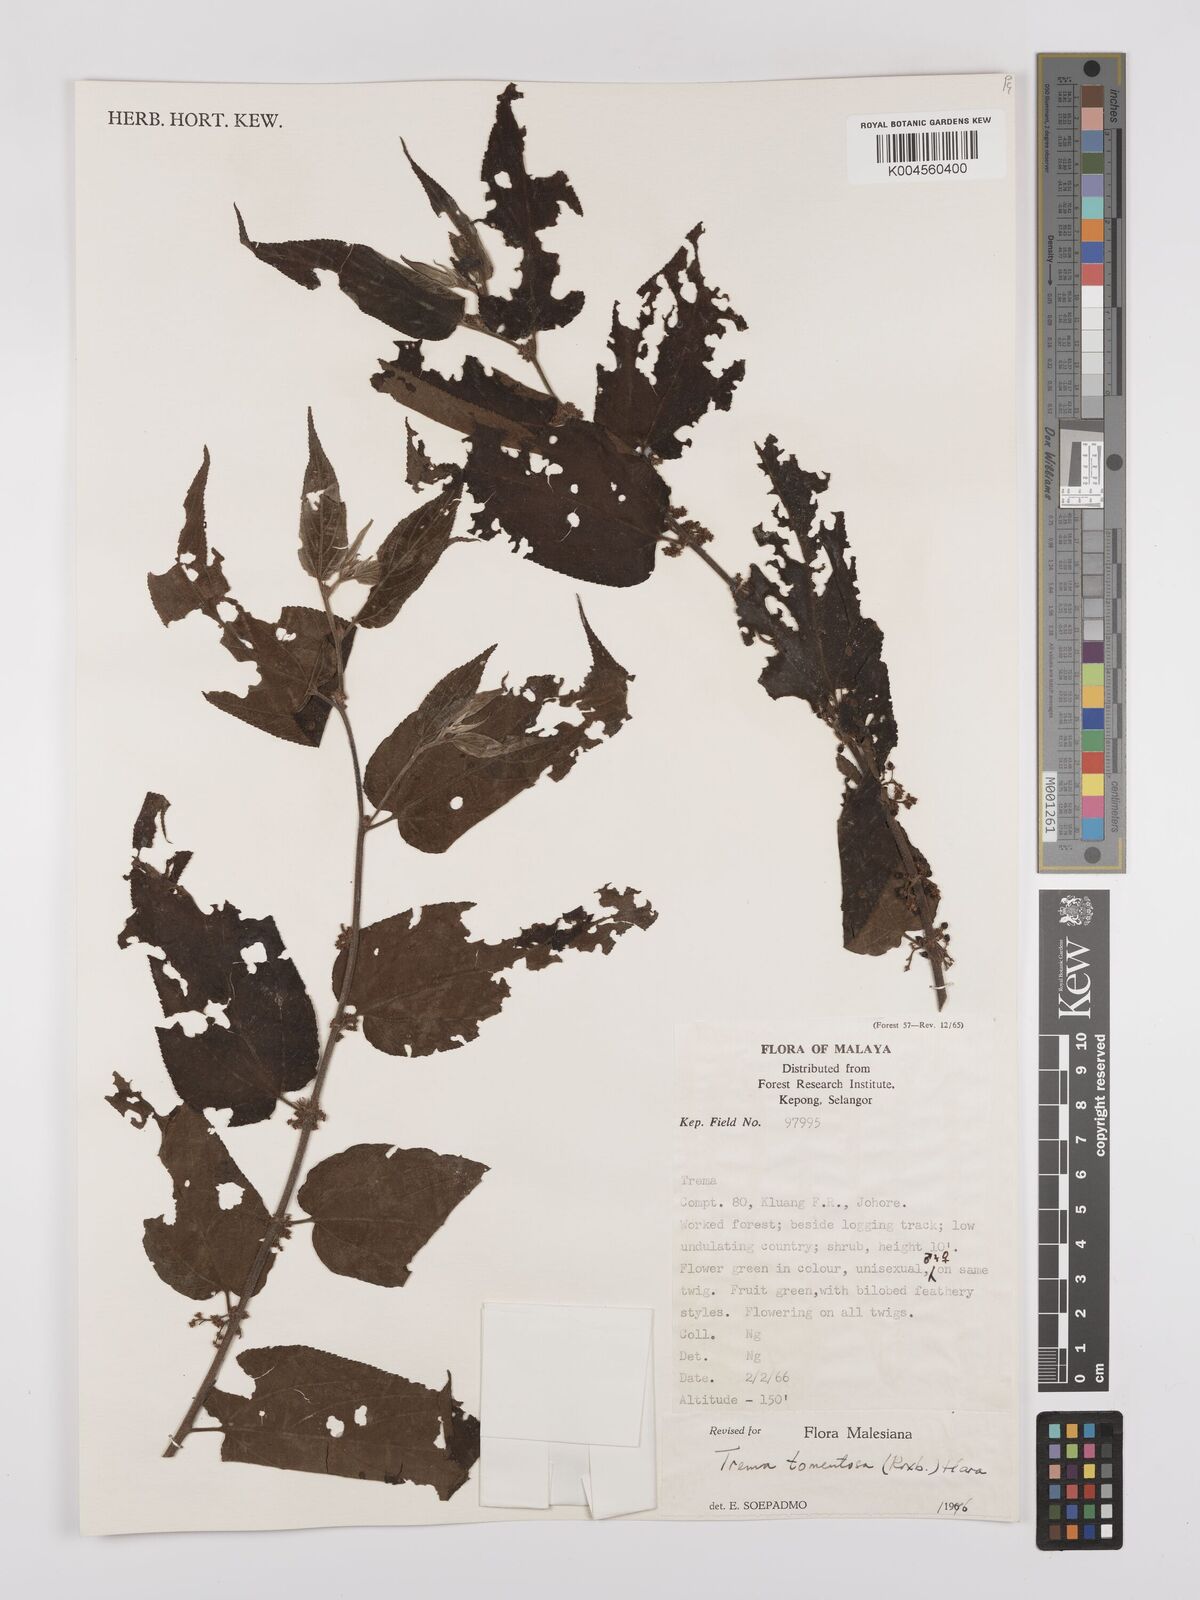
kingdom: Plantae
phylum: Tracheophyta
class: Magnoliopsida
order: Rosales
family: Cannabaceae
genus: Trema
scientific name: Trema tomentosum
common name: Peach-leaf-poisonbush
